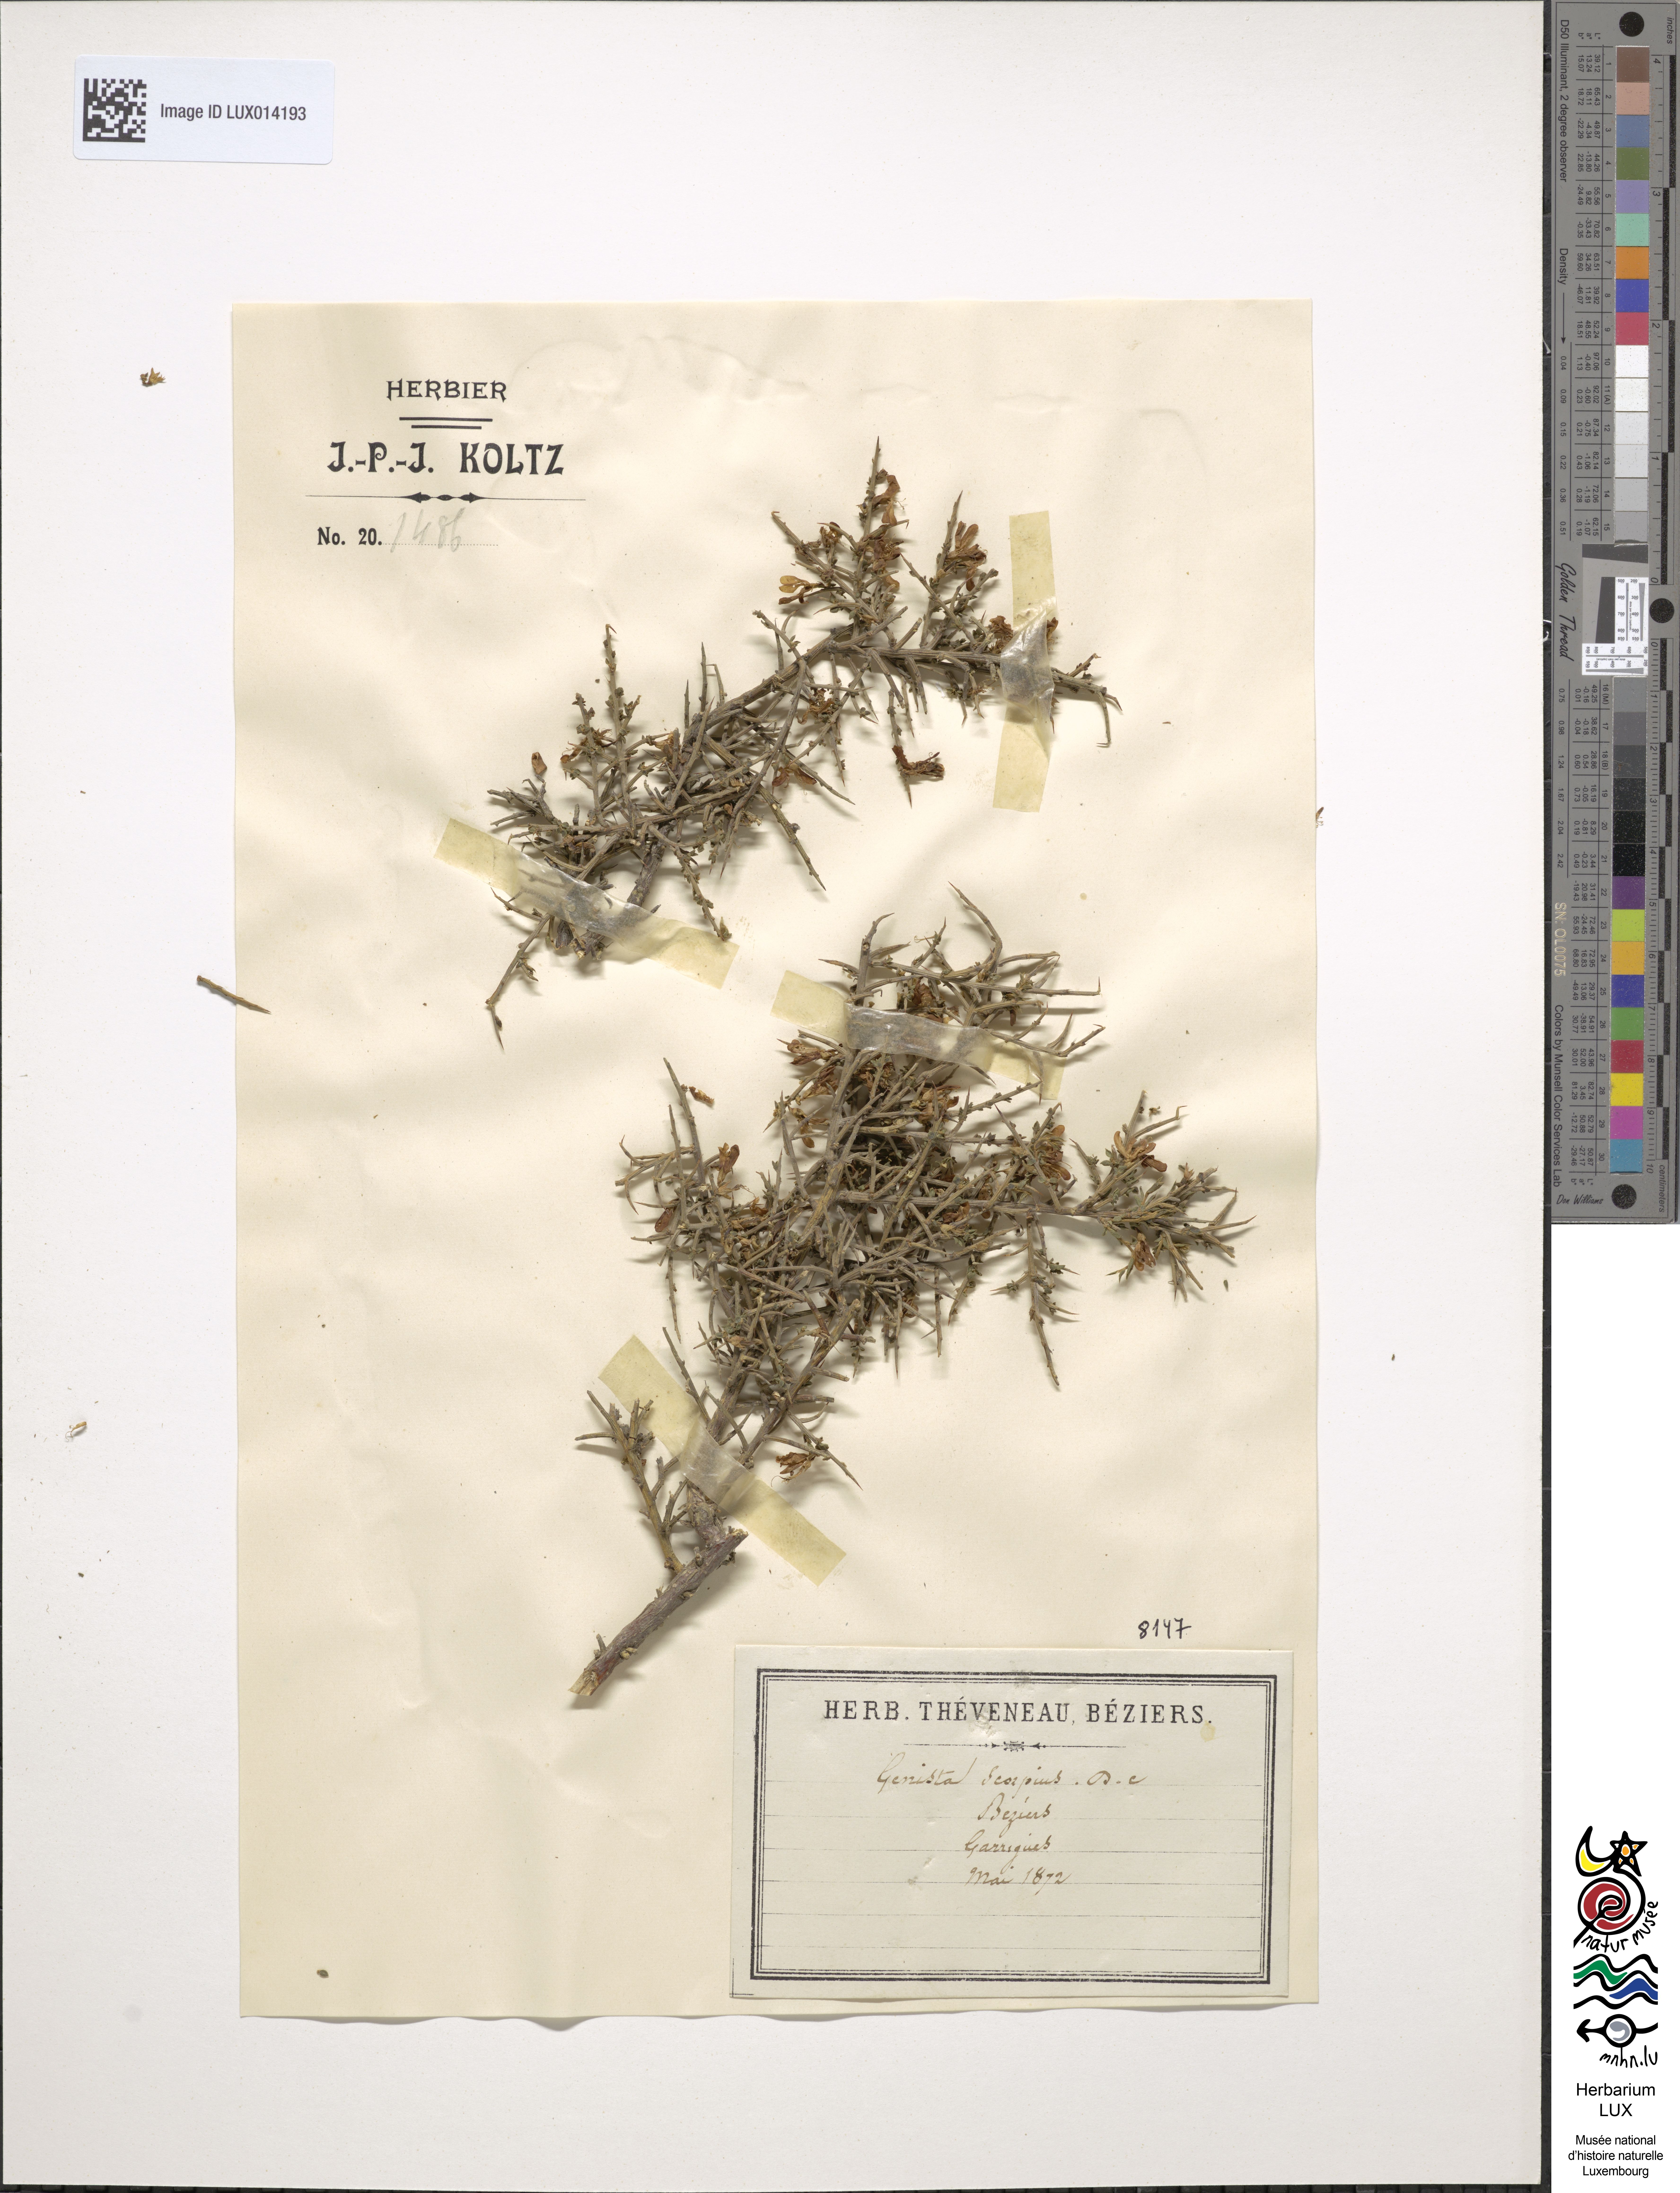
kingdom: Plantae
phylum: Tracheophyta
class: Magnoliopsida
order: Fabales
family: Fabaceae
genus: Genista
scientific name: Genista scorpius
